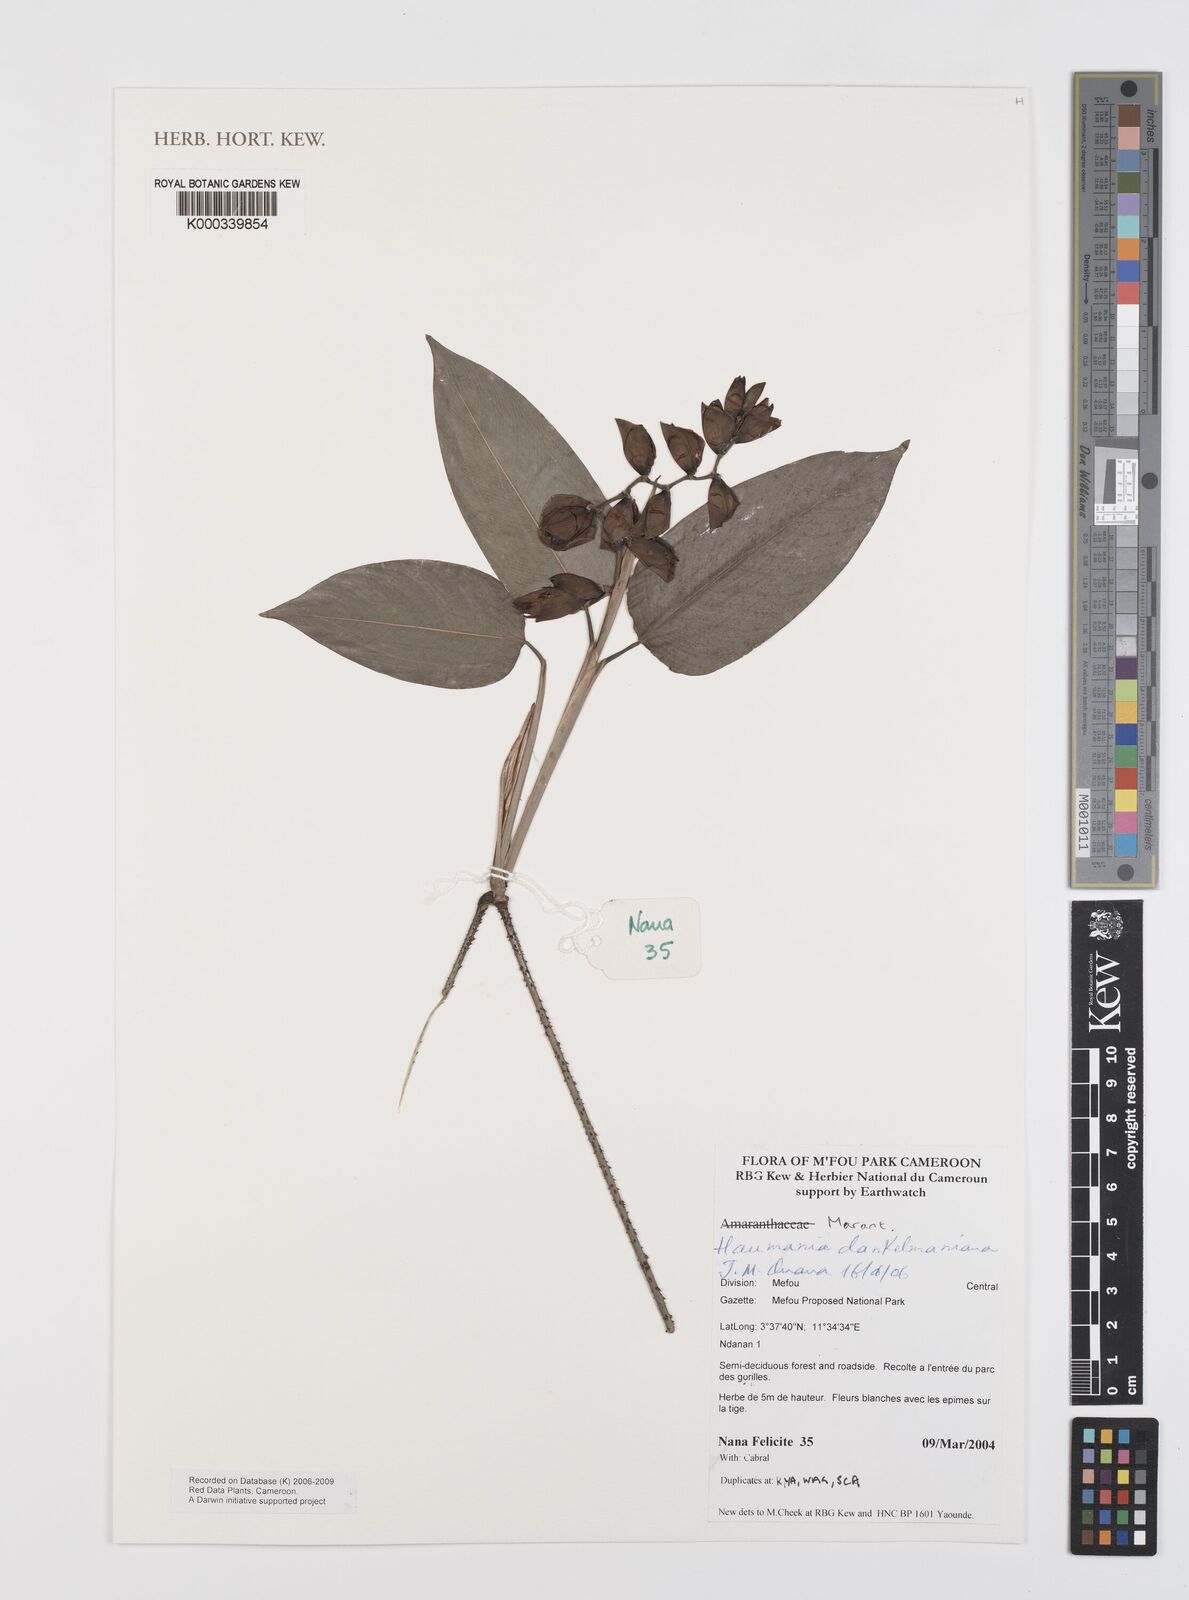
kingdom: Plantae
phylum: Tracheophyta
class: Liliopsida
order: Zingiberales
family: Marantaceae
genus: Haumania
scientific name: Haumania danckelmaniana
